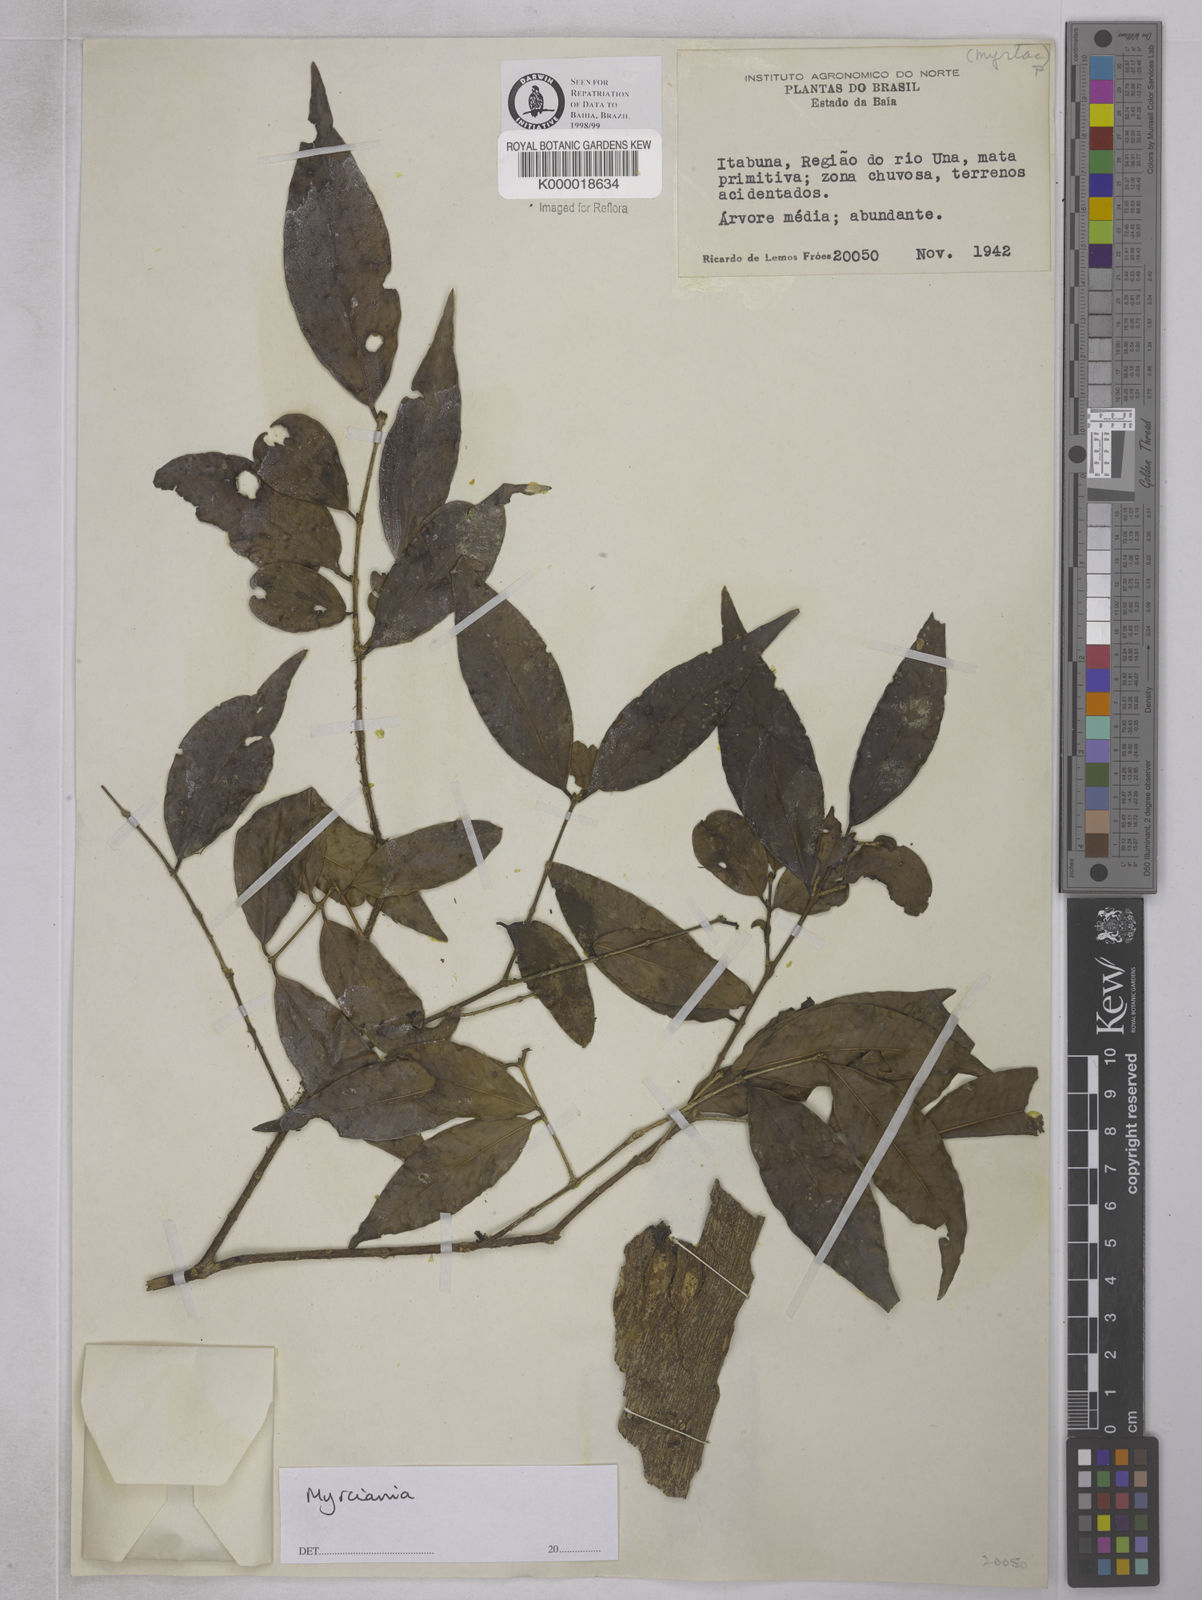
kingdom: Plantae
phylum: Tracheophyta
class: Magnoliopsida
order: Myrtales
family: Myrtaceae
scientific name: Myrtaceae
